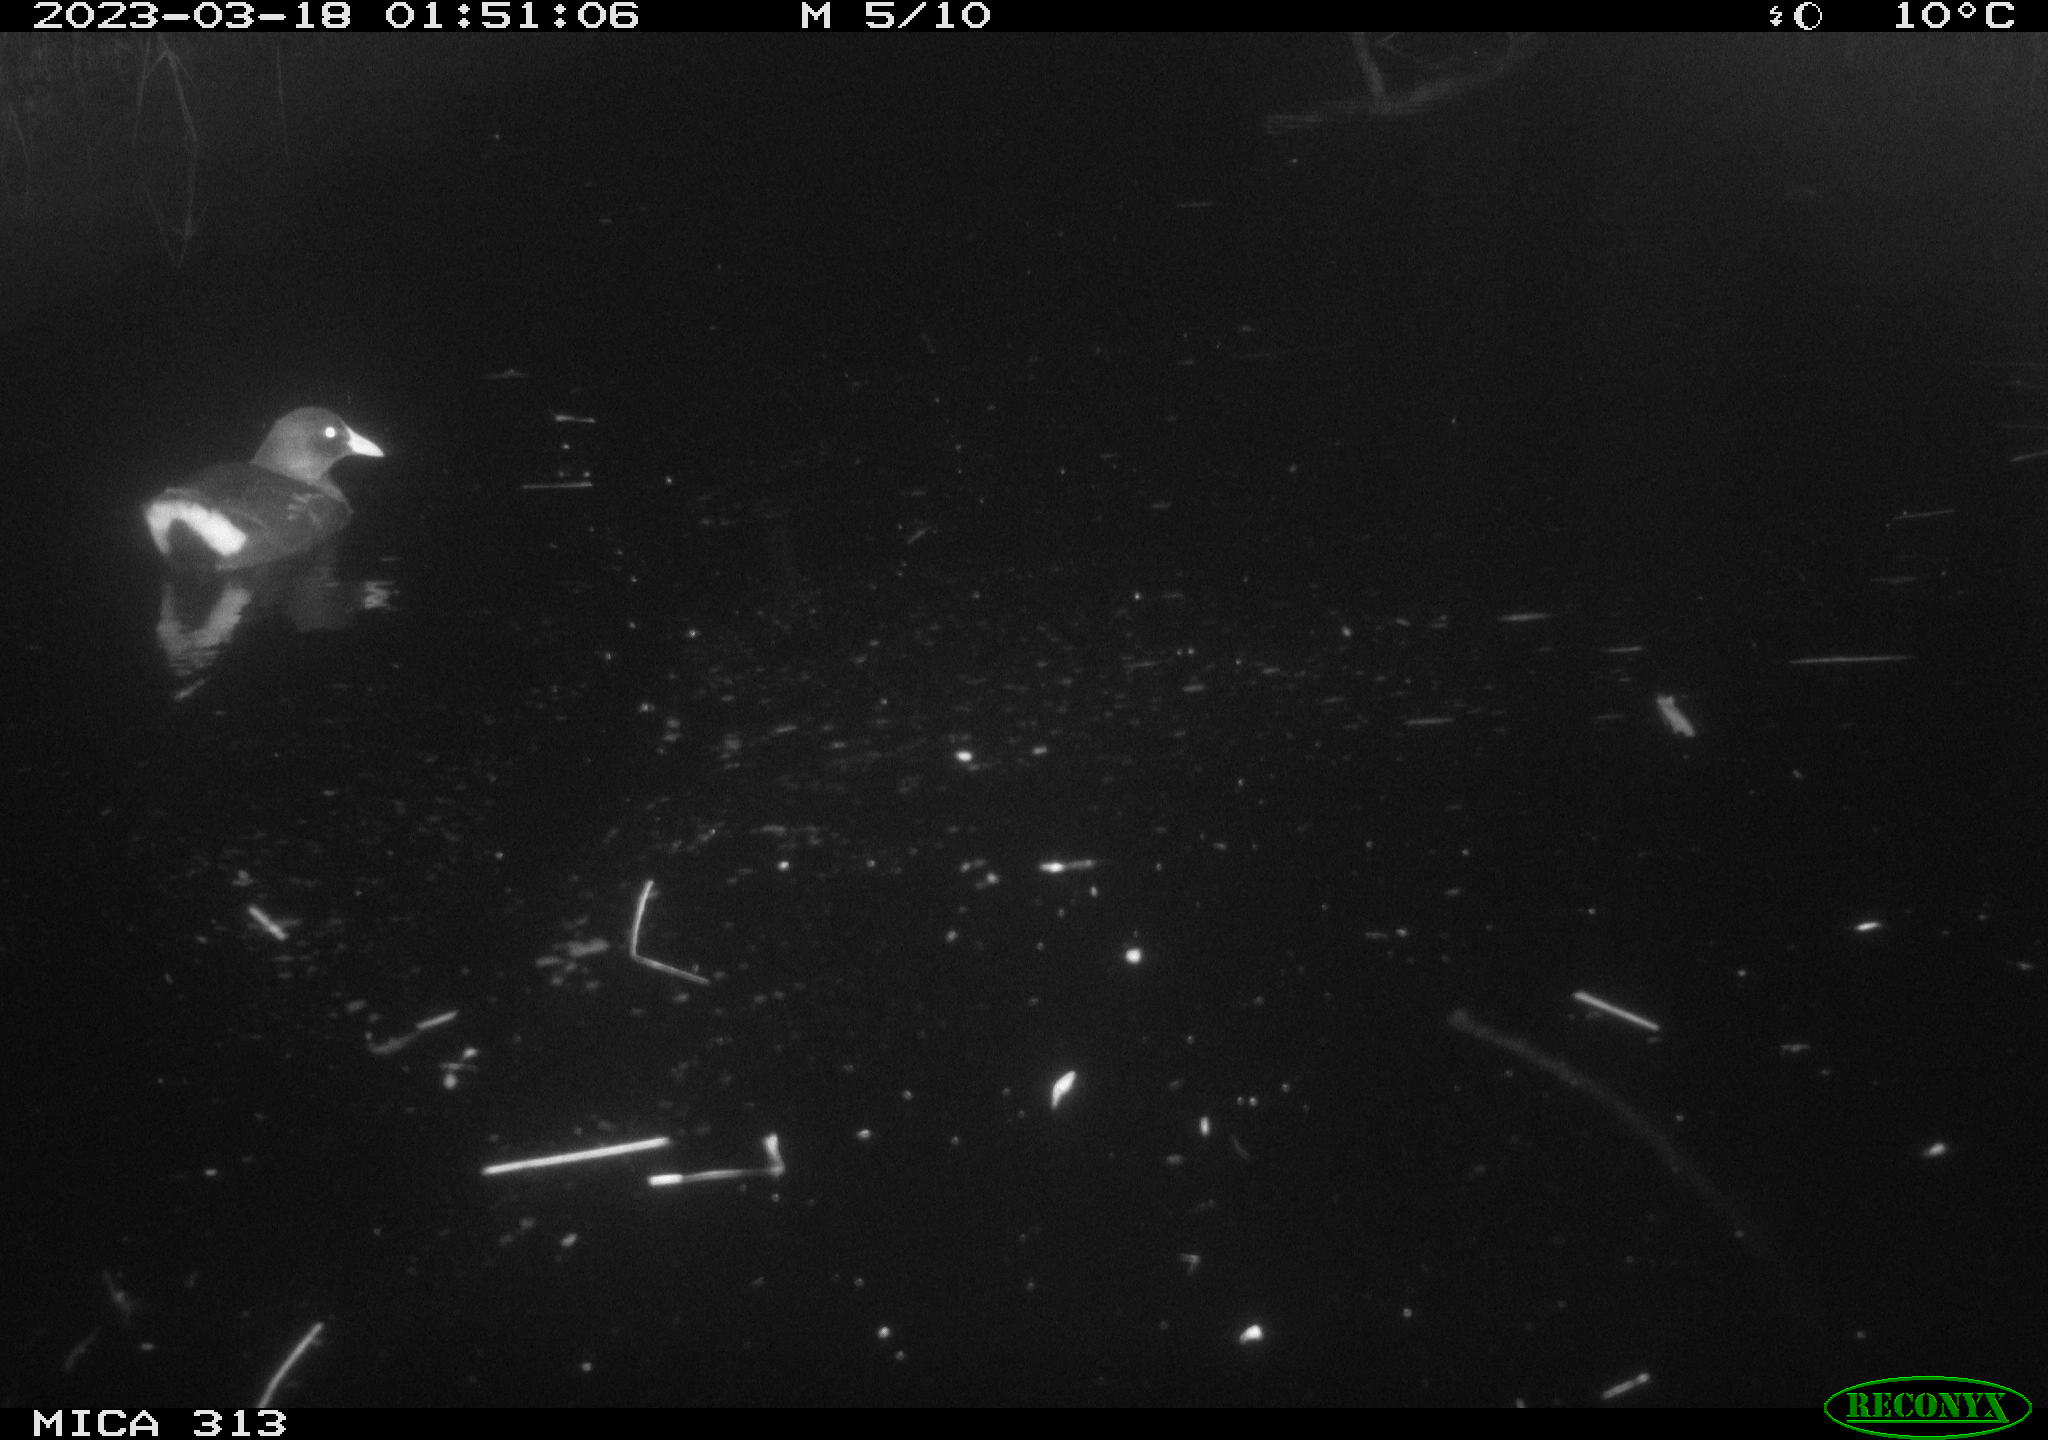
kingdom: Animalia
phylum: Chordata
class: Aves
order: Gruiformes
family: Rallidae
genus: Gallinula
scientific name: Gallinula chloropus
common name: Common moorhen
